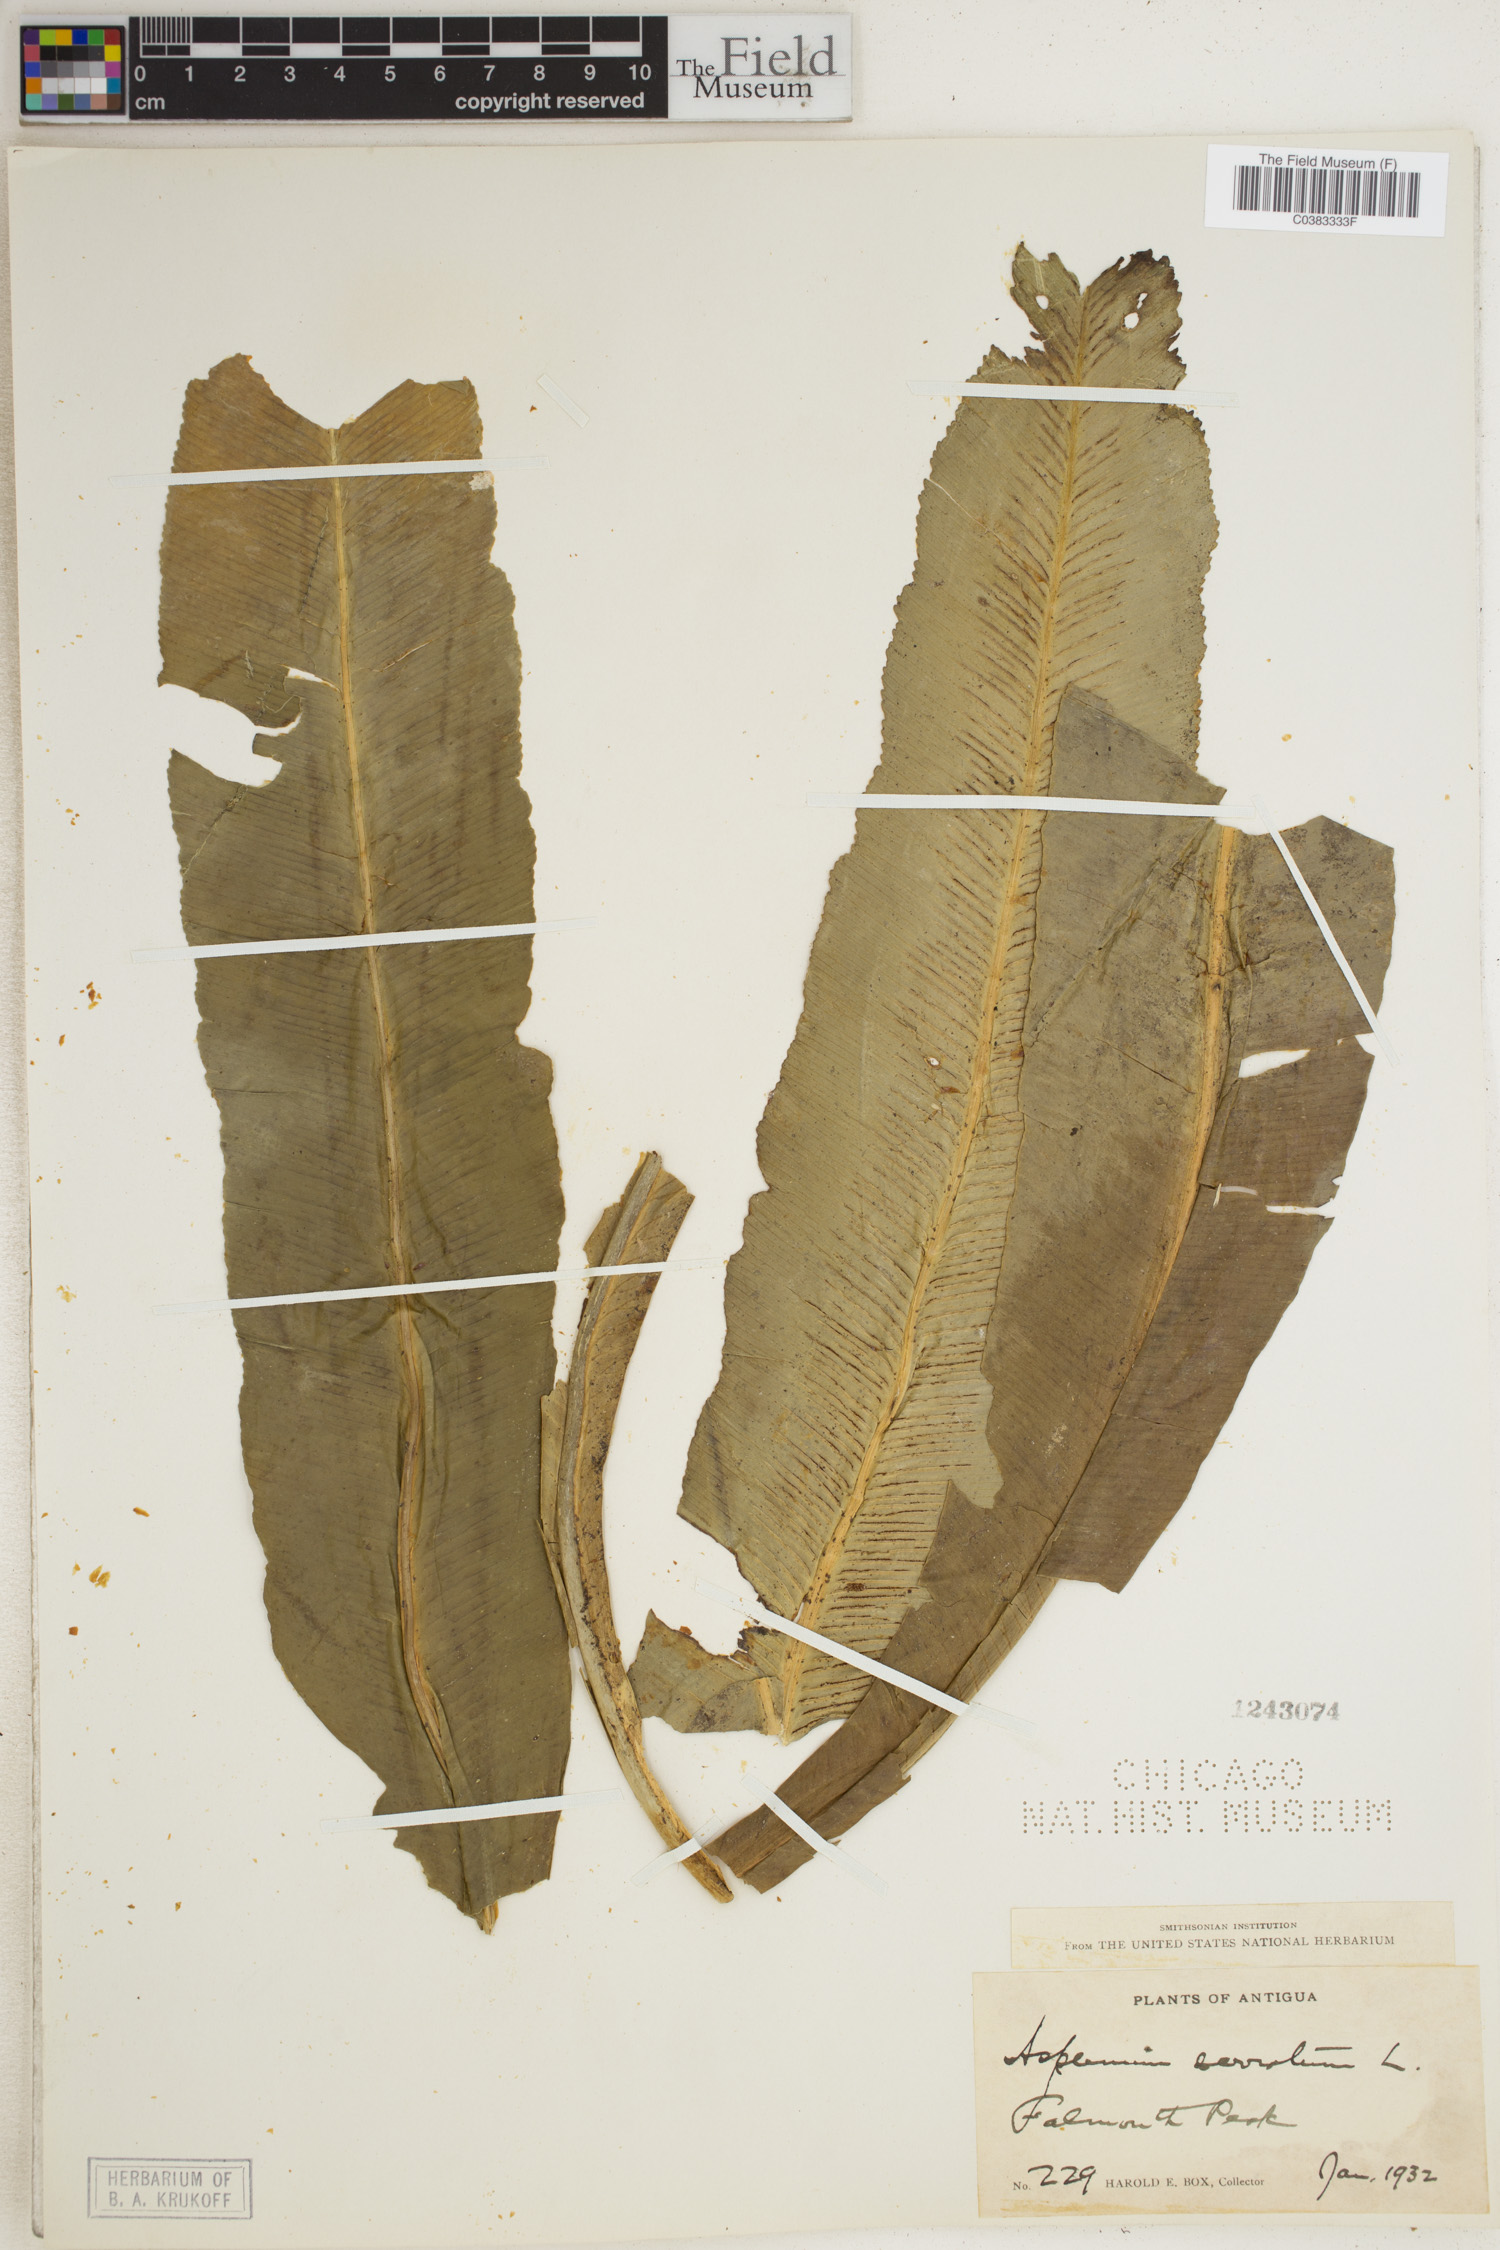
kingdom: Plantae
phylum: Tracheophyta
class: Polypodiopsida
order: Polypodiales
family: Aspleniaceae
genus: Asplenium
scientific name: Asplenium serratum
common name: Wild birdnest fern
